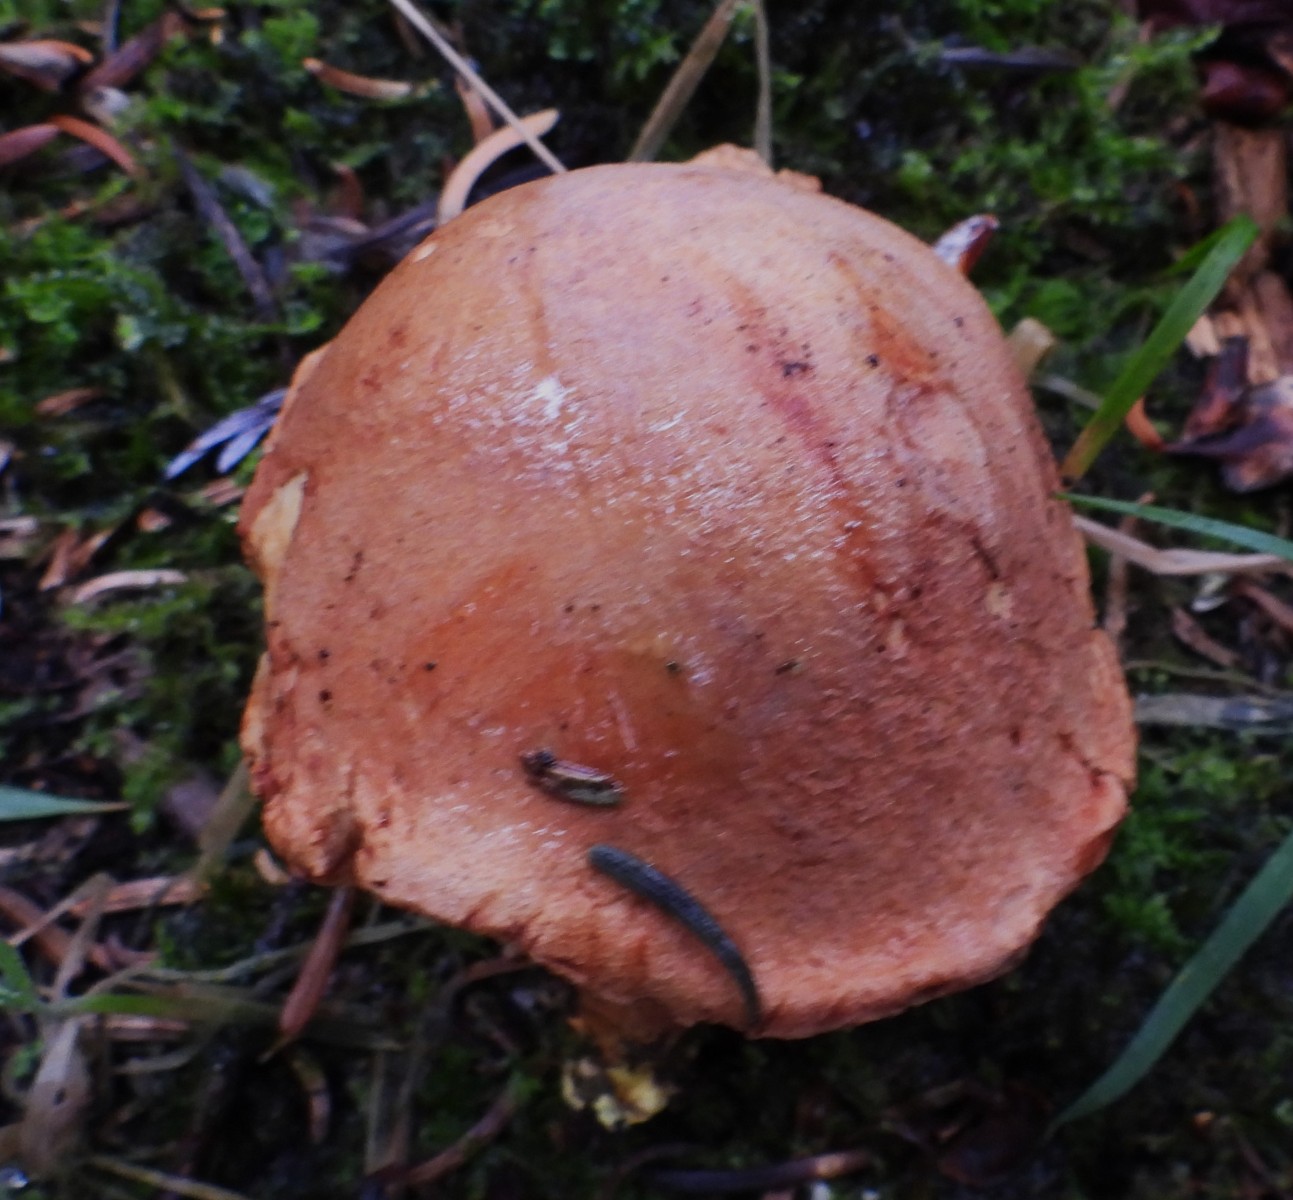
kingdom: Fungi
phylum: Basidiomycota
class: Agaricomycetes
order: Boletales
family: Boletaceae
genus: Chalciporus
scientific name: Chalciporus piperatus
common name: peberrørhat
